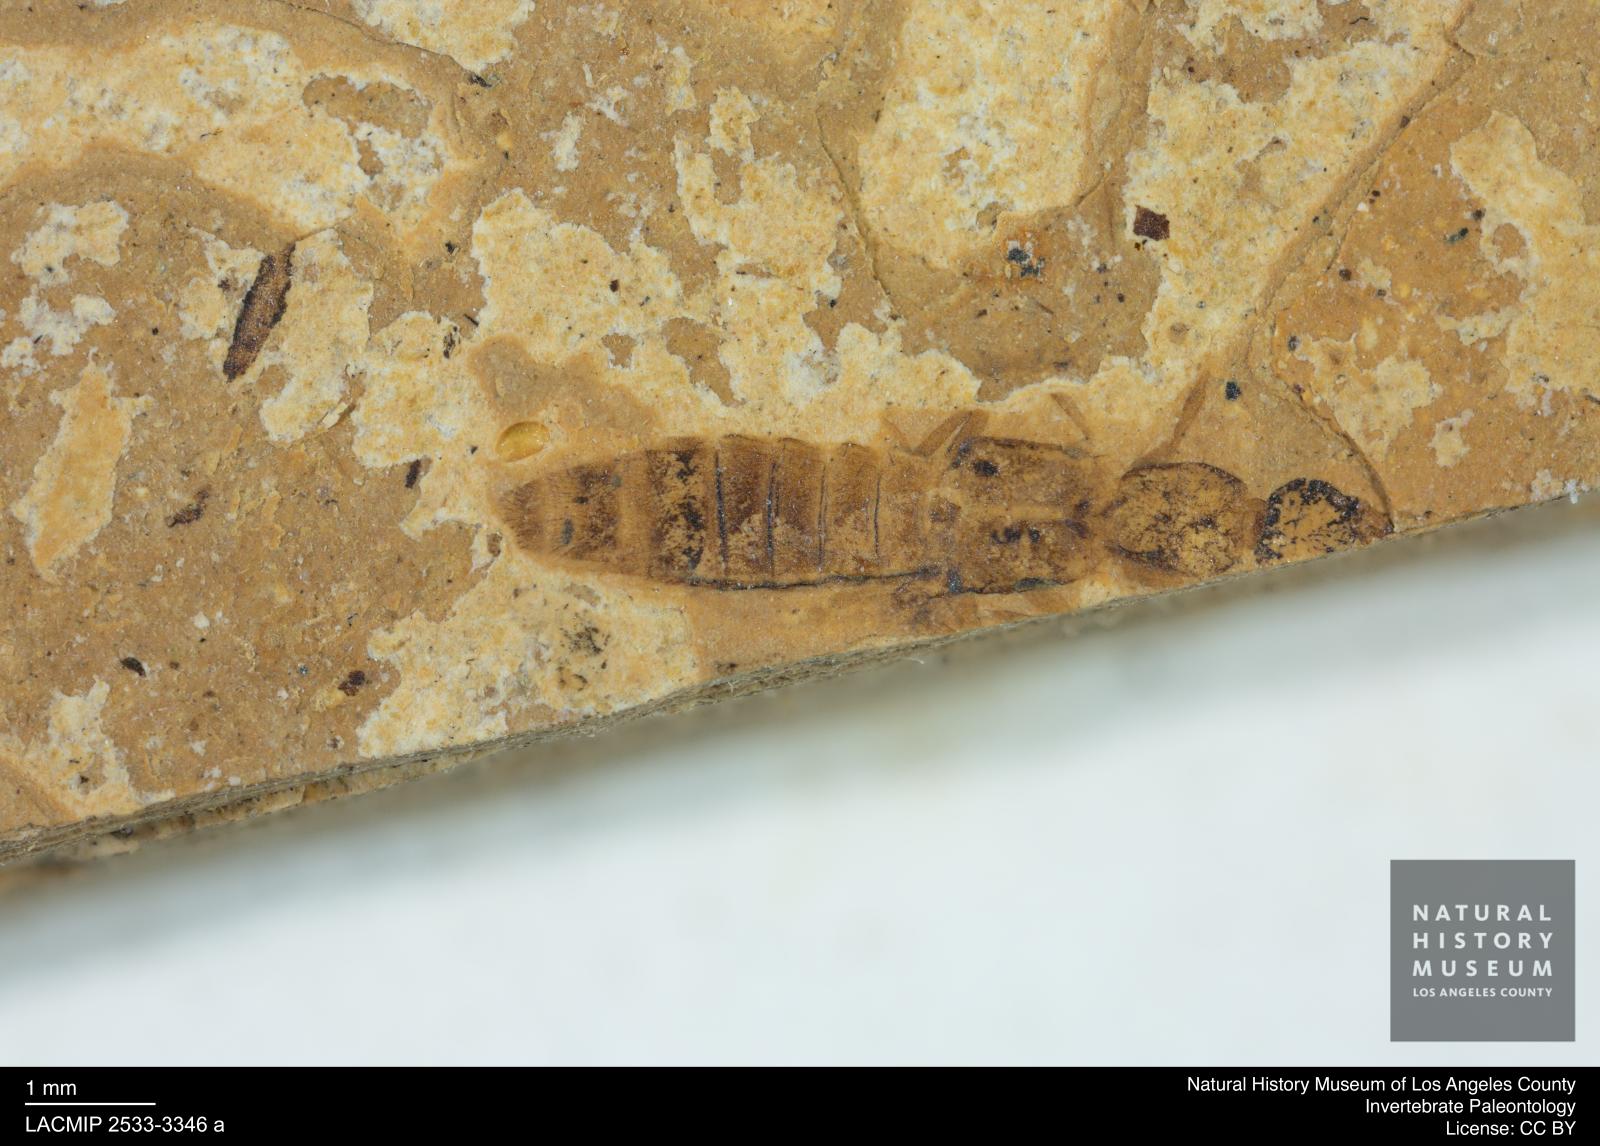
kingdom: Animalia
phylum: Arthropoda
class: Insecta
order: Coleoptera
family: Staphylinidae
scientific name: Staphylinidae
